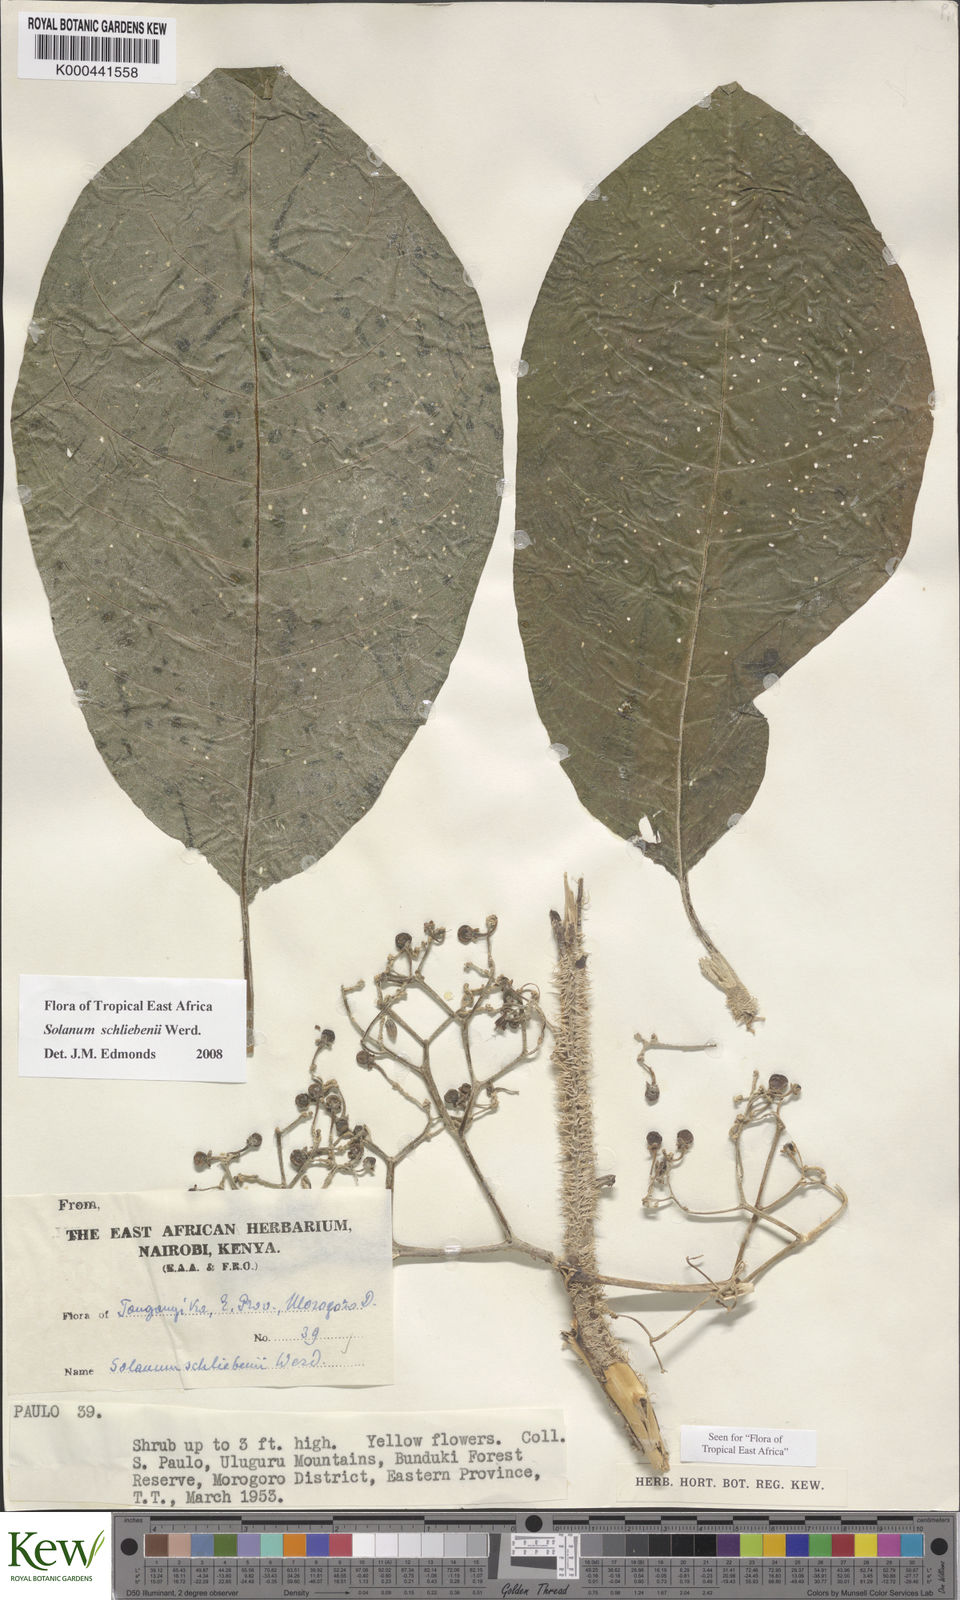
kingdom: Plantae
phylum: Tracheophyta
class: Magnoliopsida
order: Solanales
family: Solanaceae
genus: Solanum
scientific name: Solanum schliebenii
